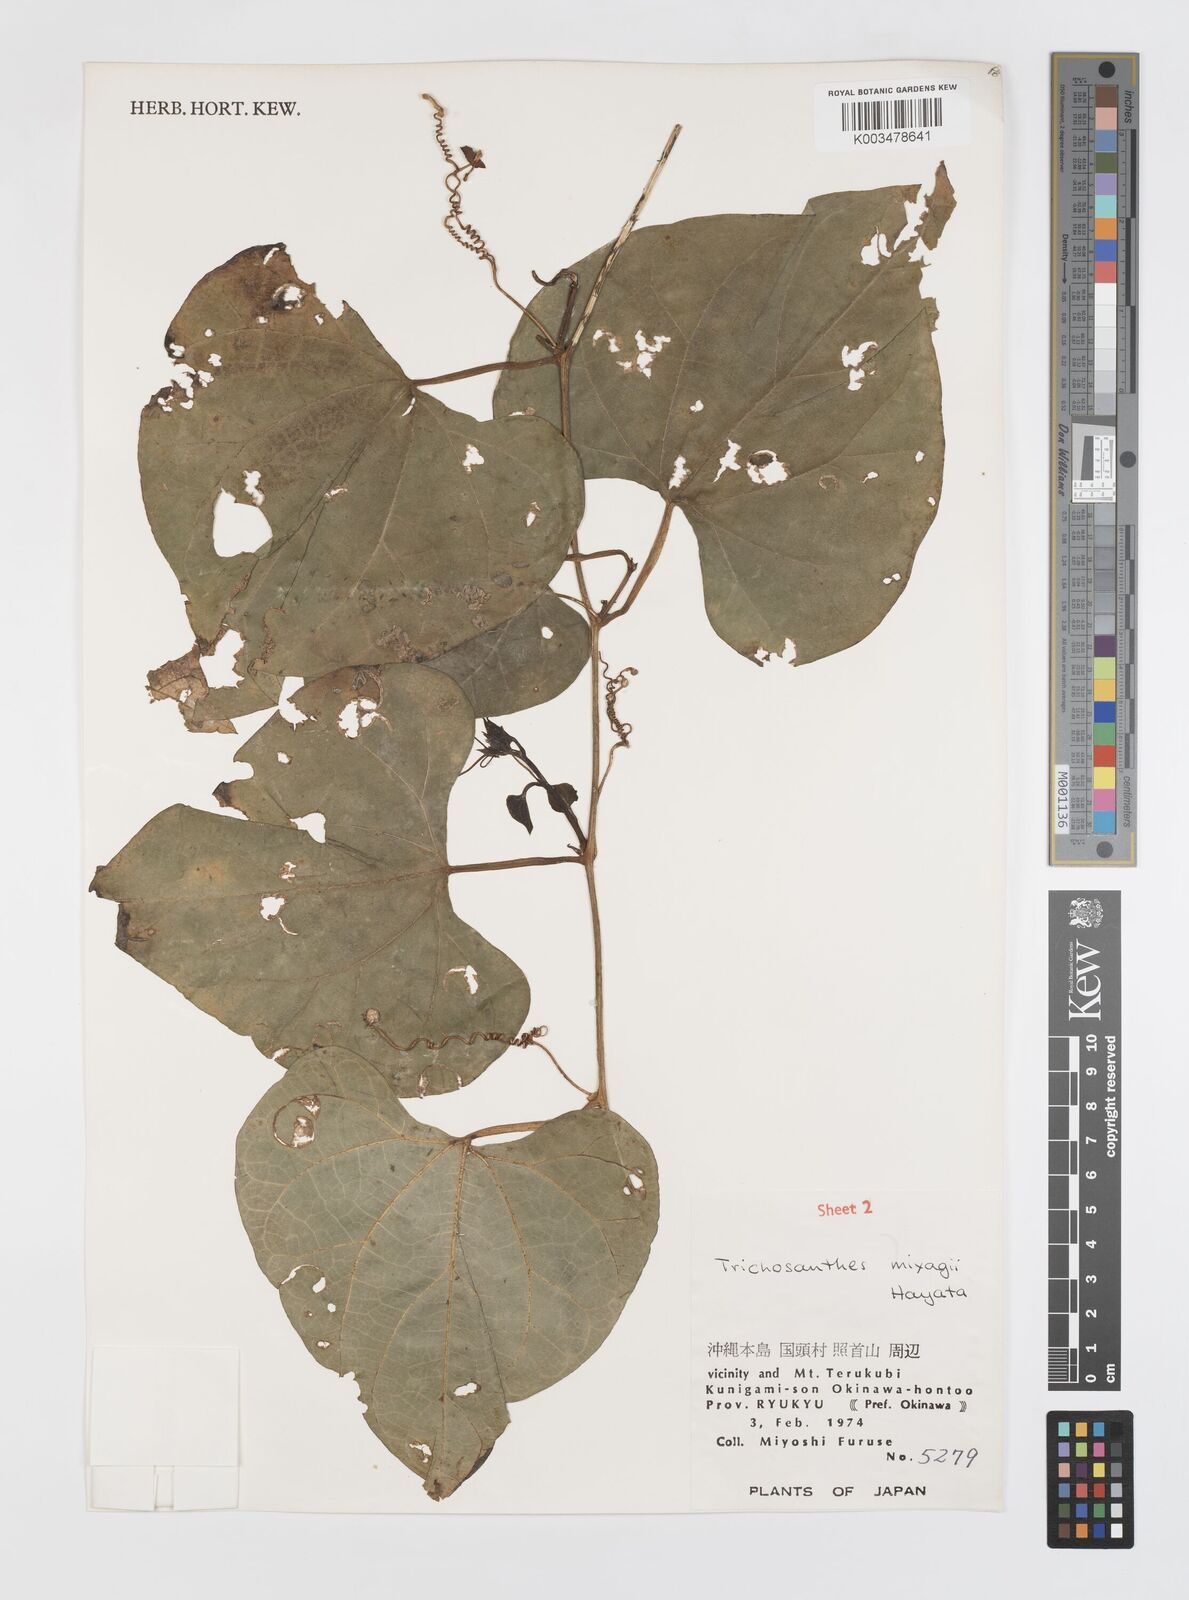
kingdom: Plantae
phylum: Tracheophyta
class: Magnoliopsida
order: Cucurbitales
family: Cucurbitaceae
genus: Trichosanthes
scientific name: Trichosanthes miyagii
